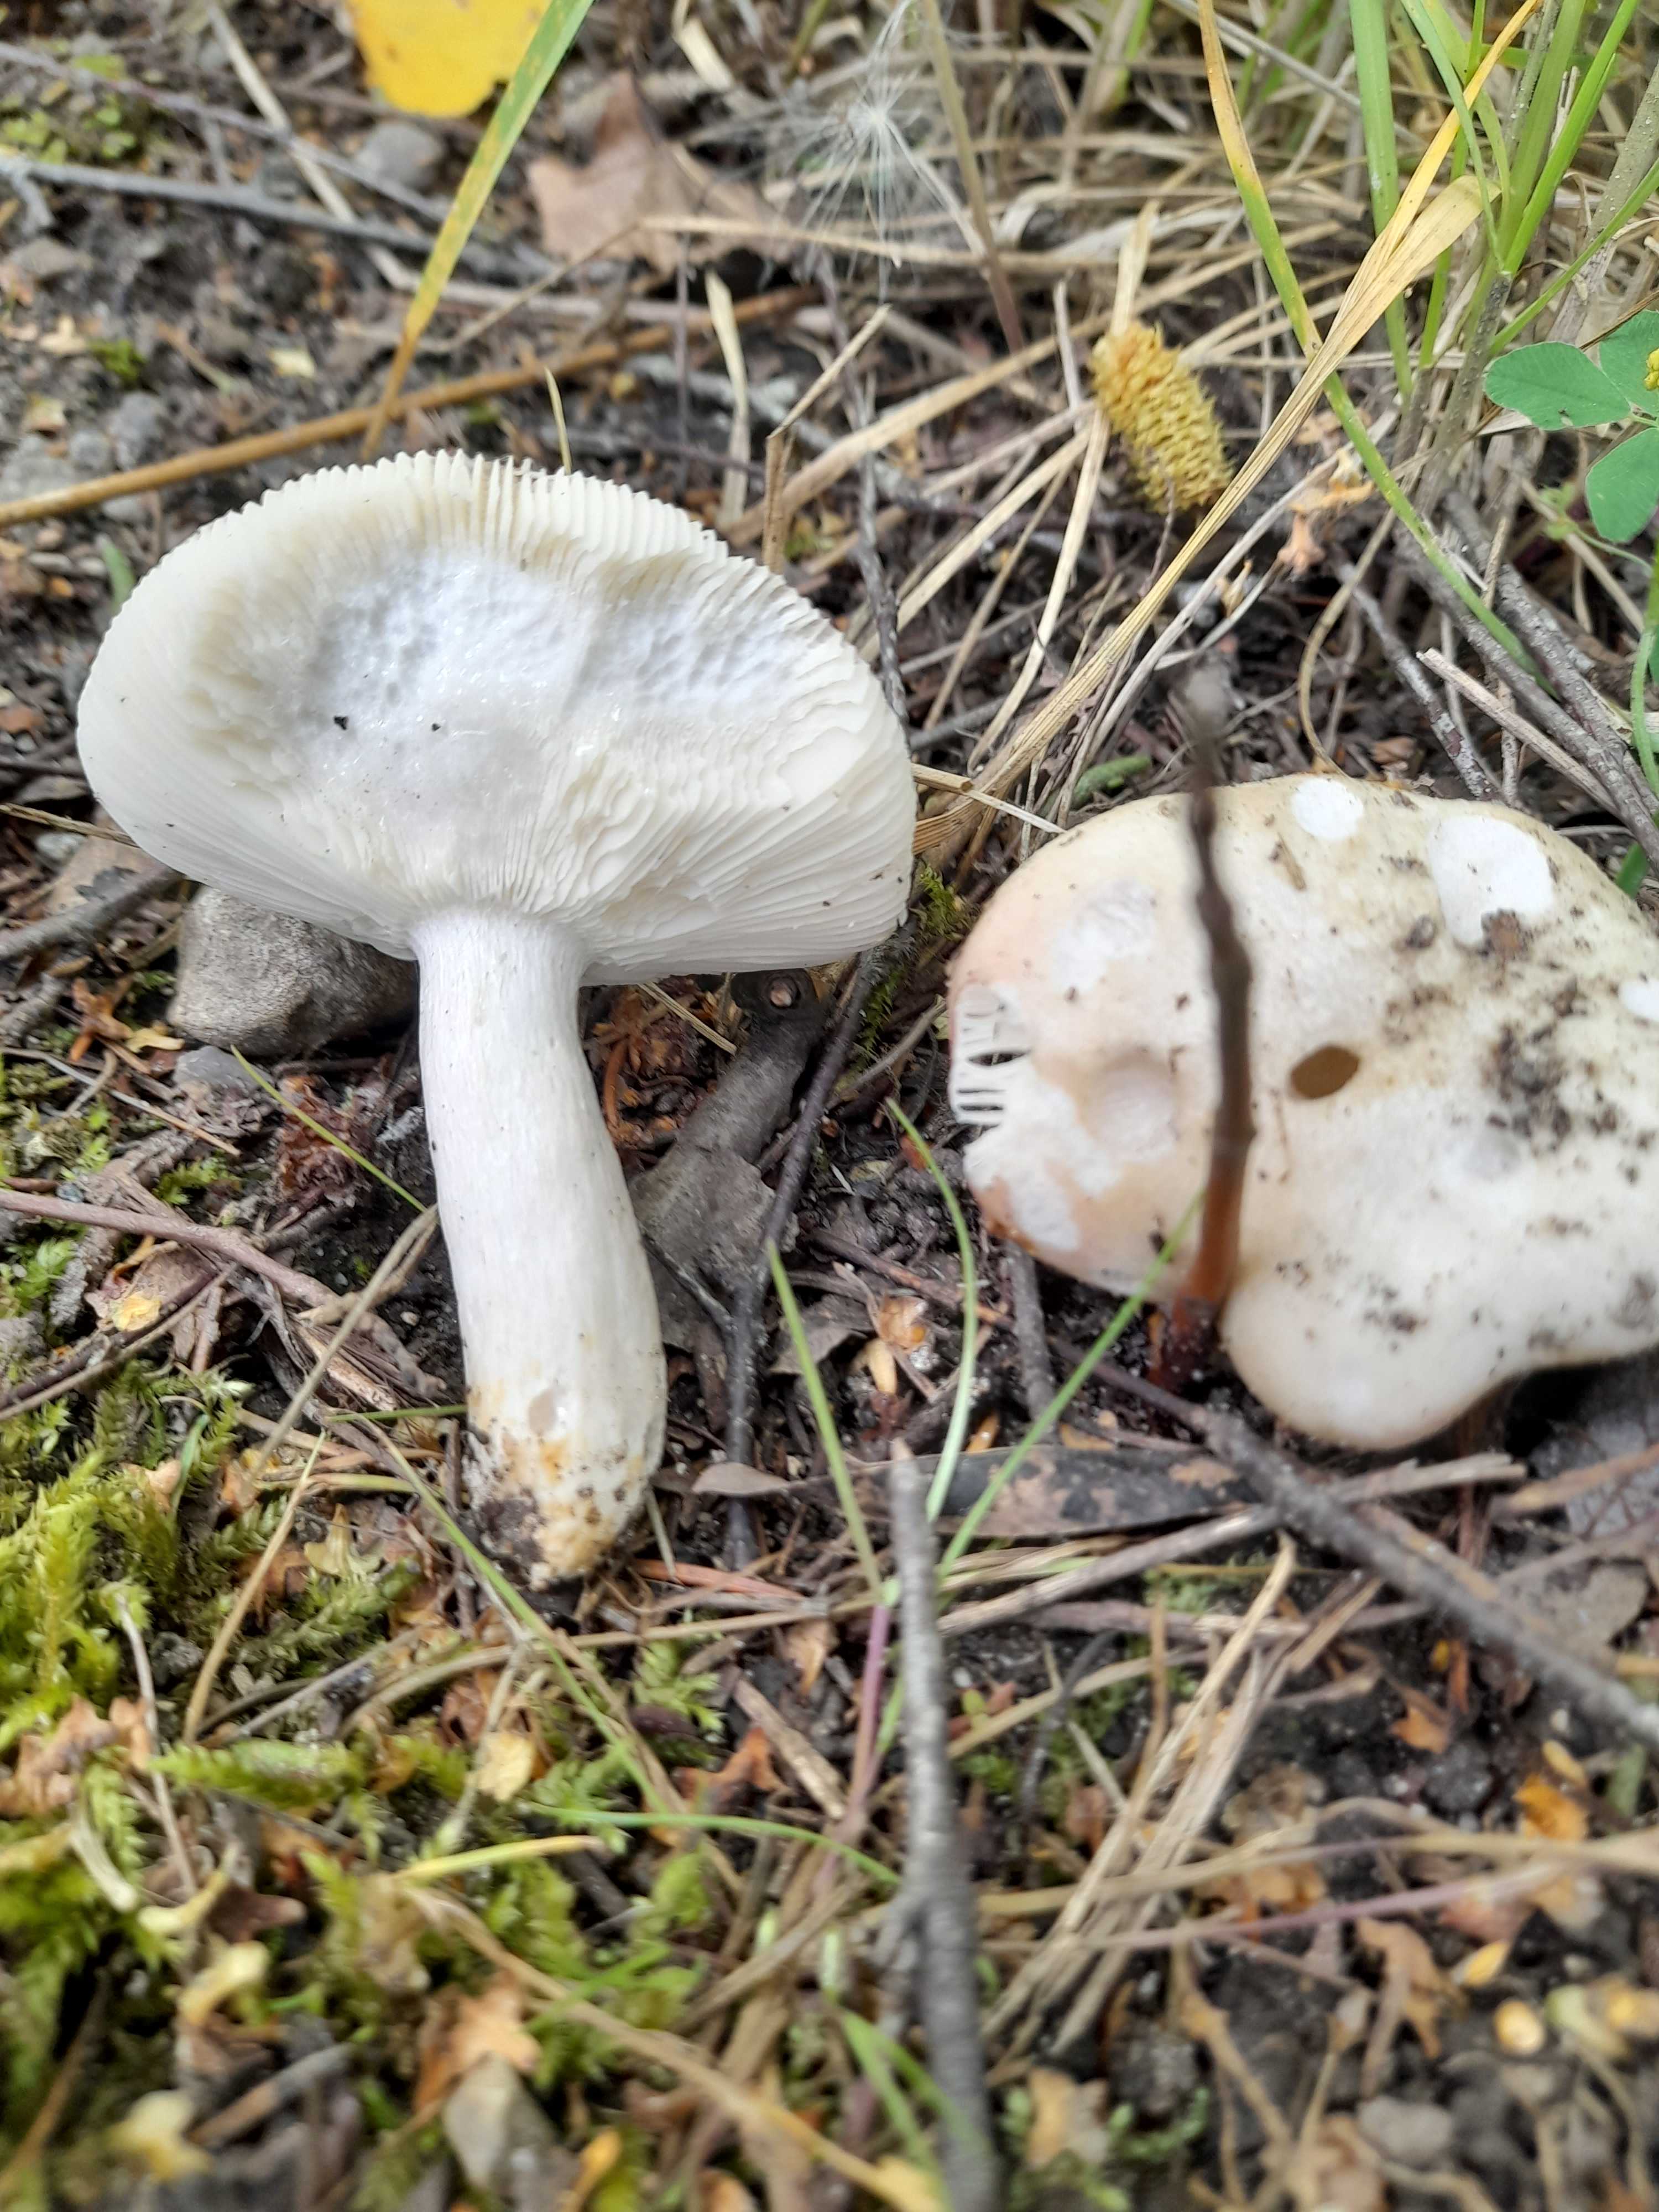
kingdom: Fungi
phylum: Basidiomycota
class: Agaricomycetes
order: Russulales
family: Russulaceae
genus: Russula
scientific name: Russula
